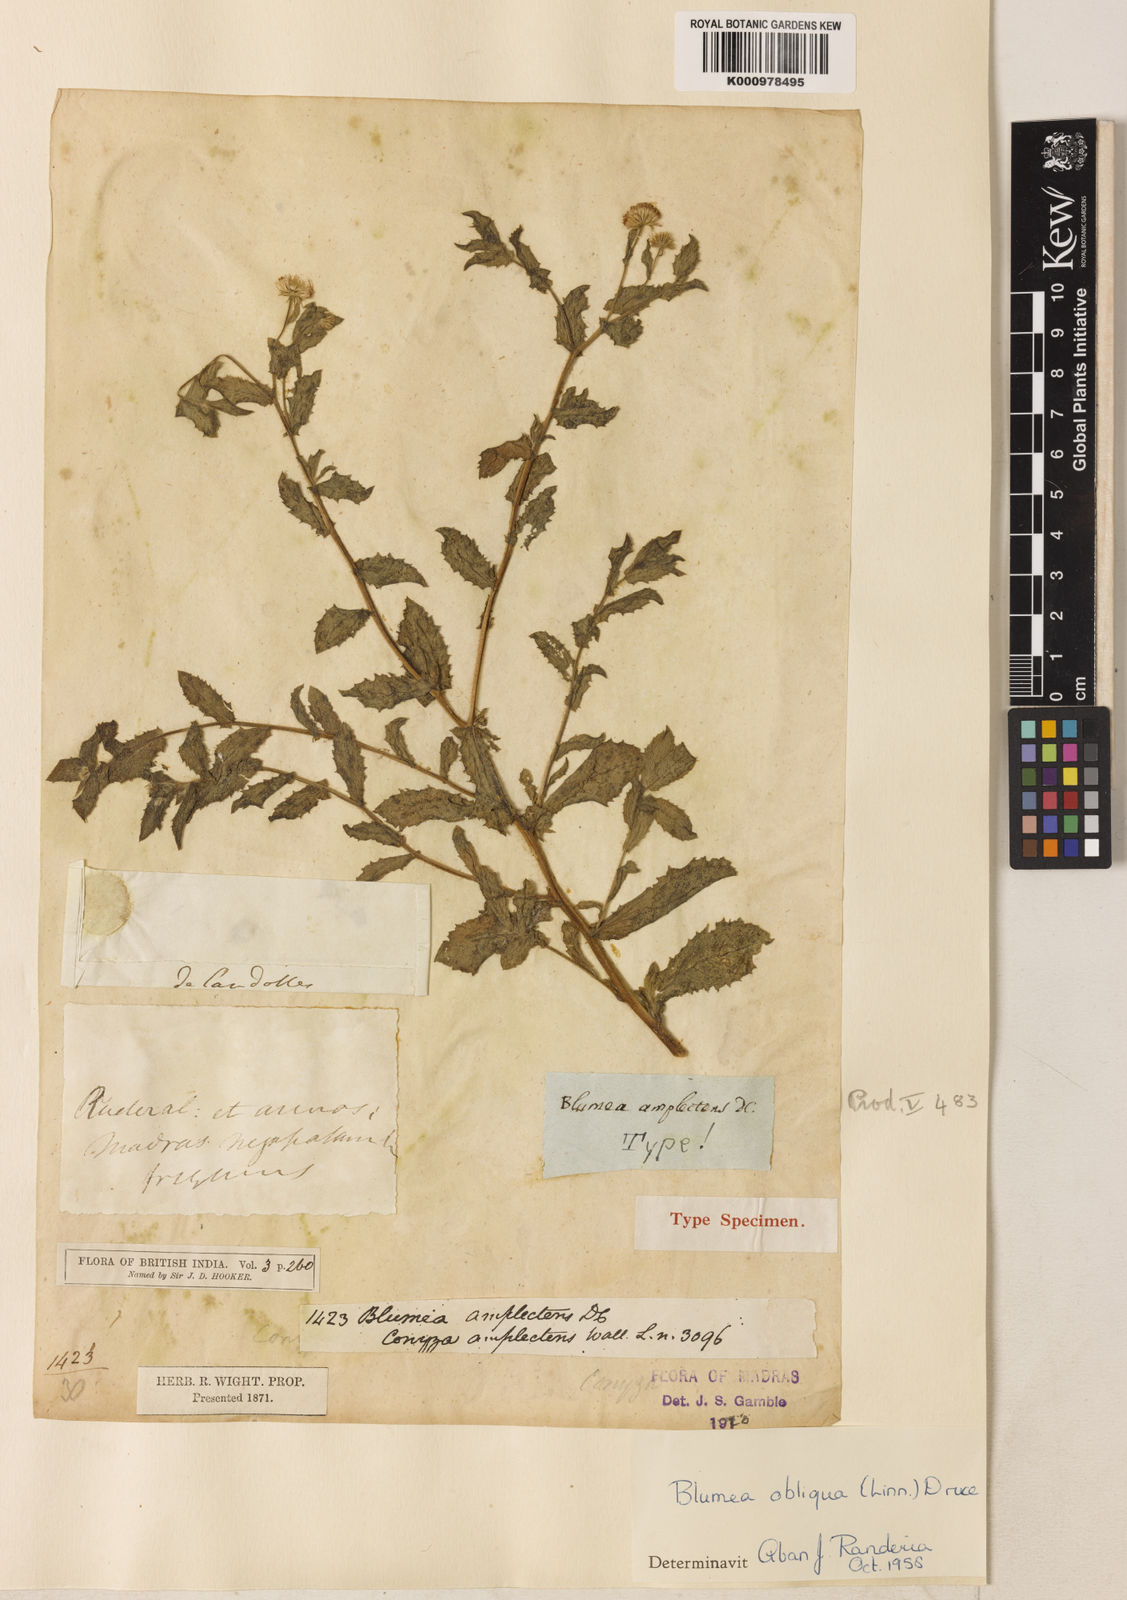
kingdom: Plantae
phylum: Tracheophyta
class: Magnoliopsida
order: Asterales
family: Asteraceae
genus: Blumea
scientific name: Blumea obliqua
